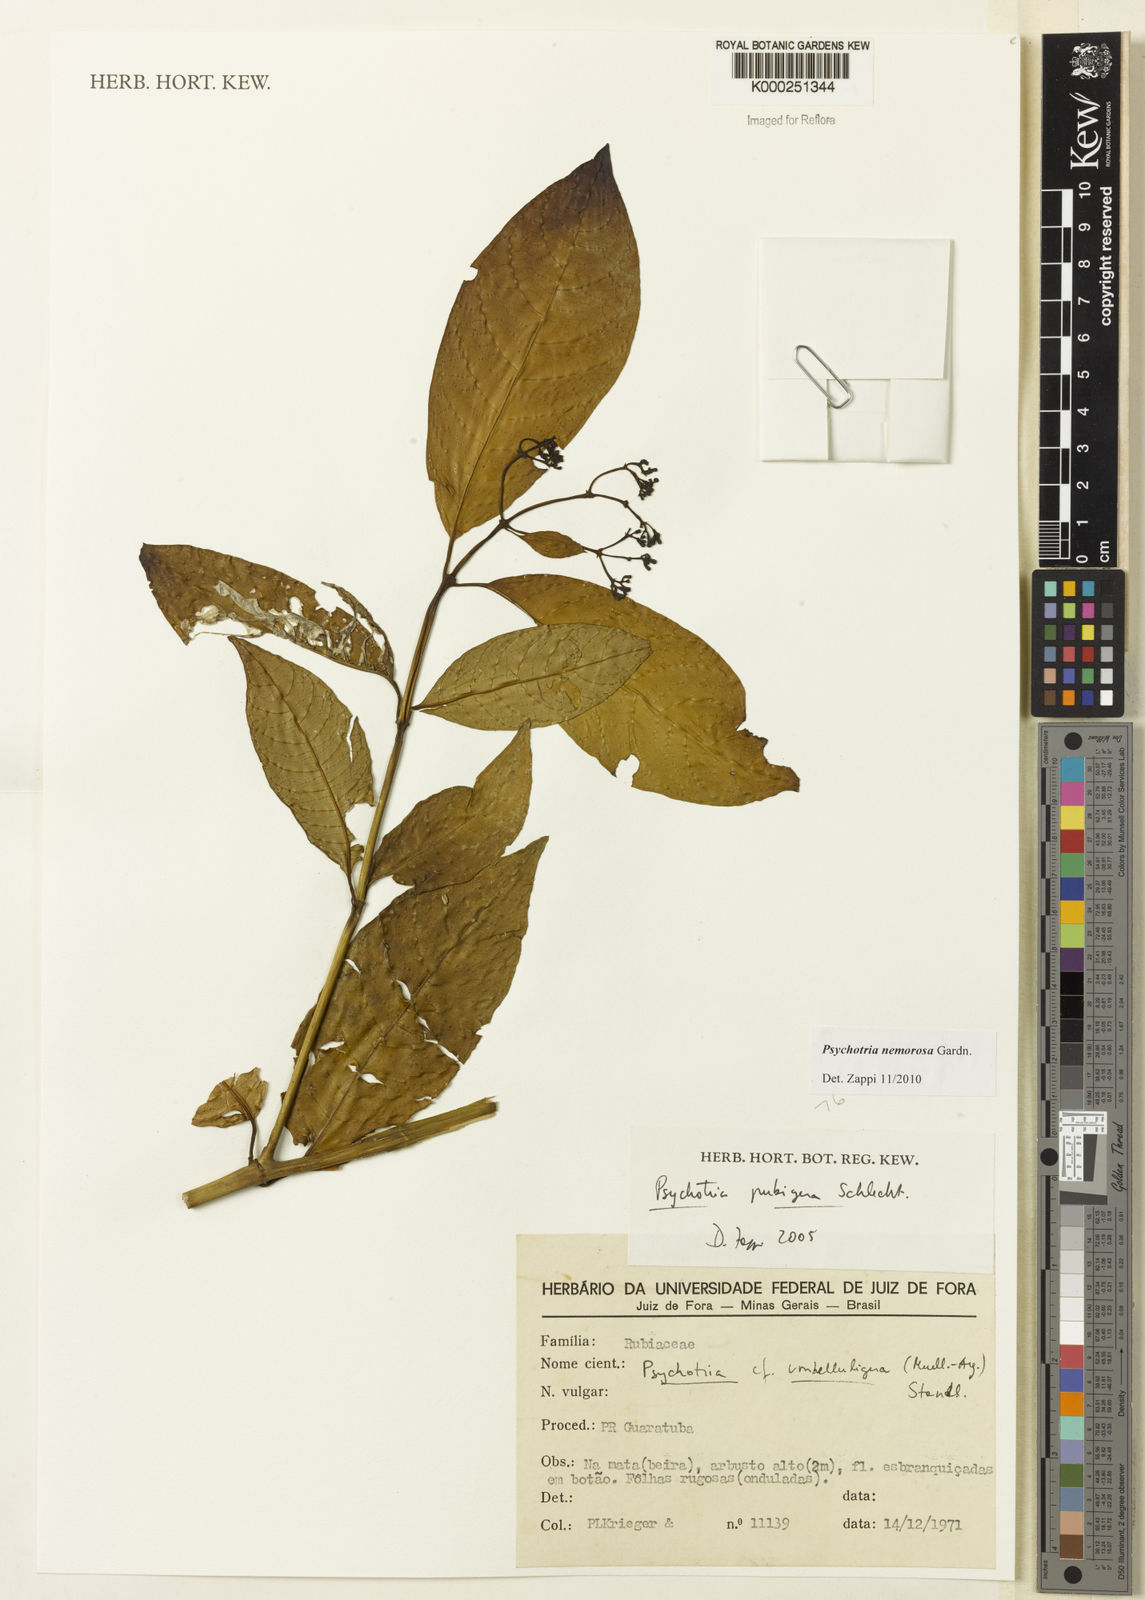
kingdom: Plantae
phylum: Tracheophyta
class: Magnoliopsida
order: Gentianales
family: Rubiaceae
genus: Psychotria
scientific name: Psychotria nemorosa
